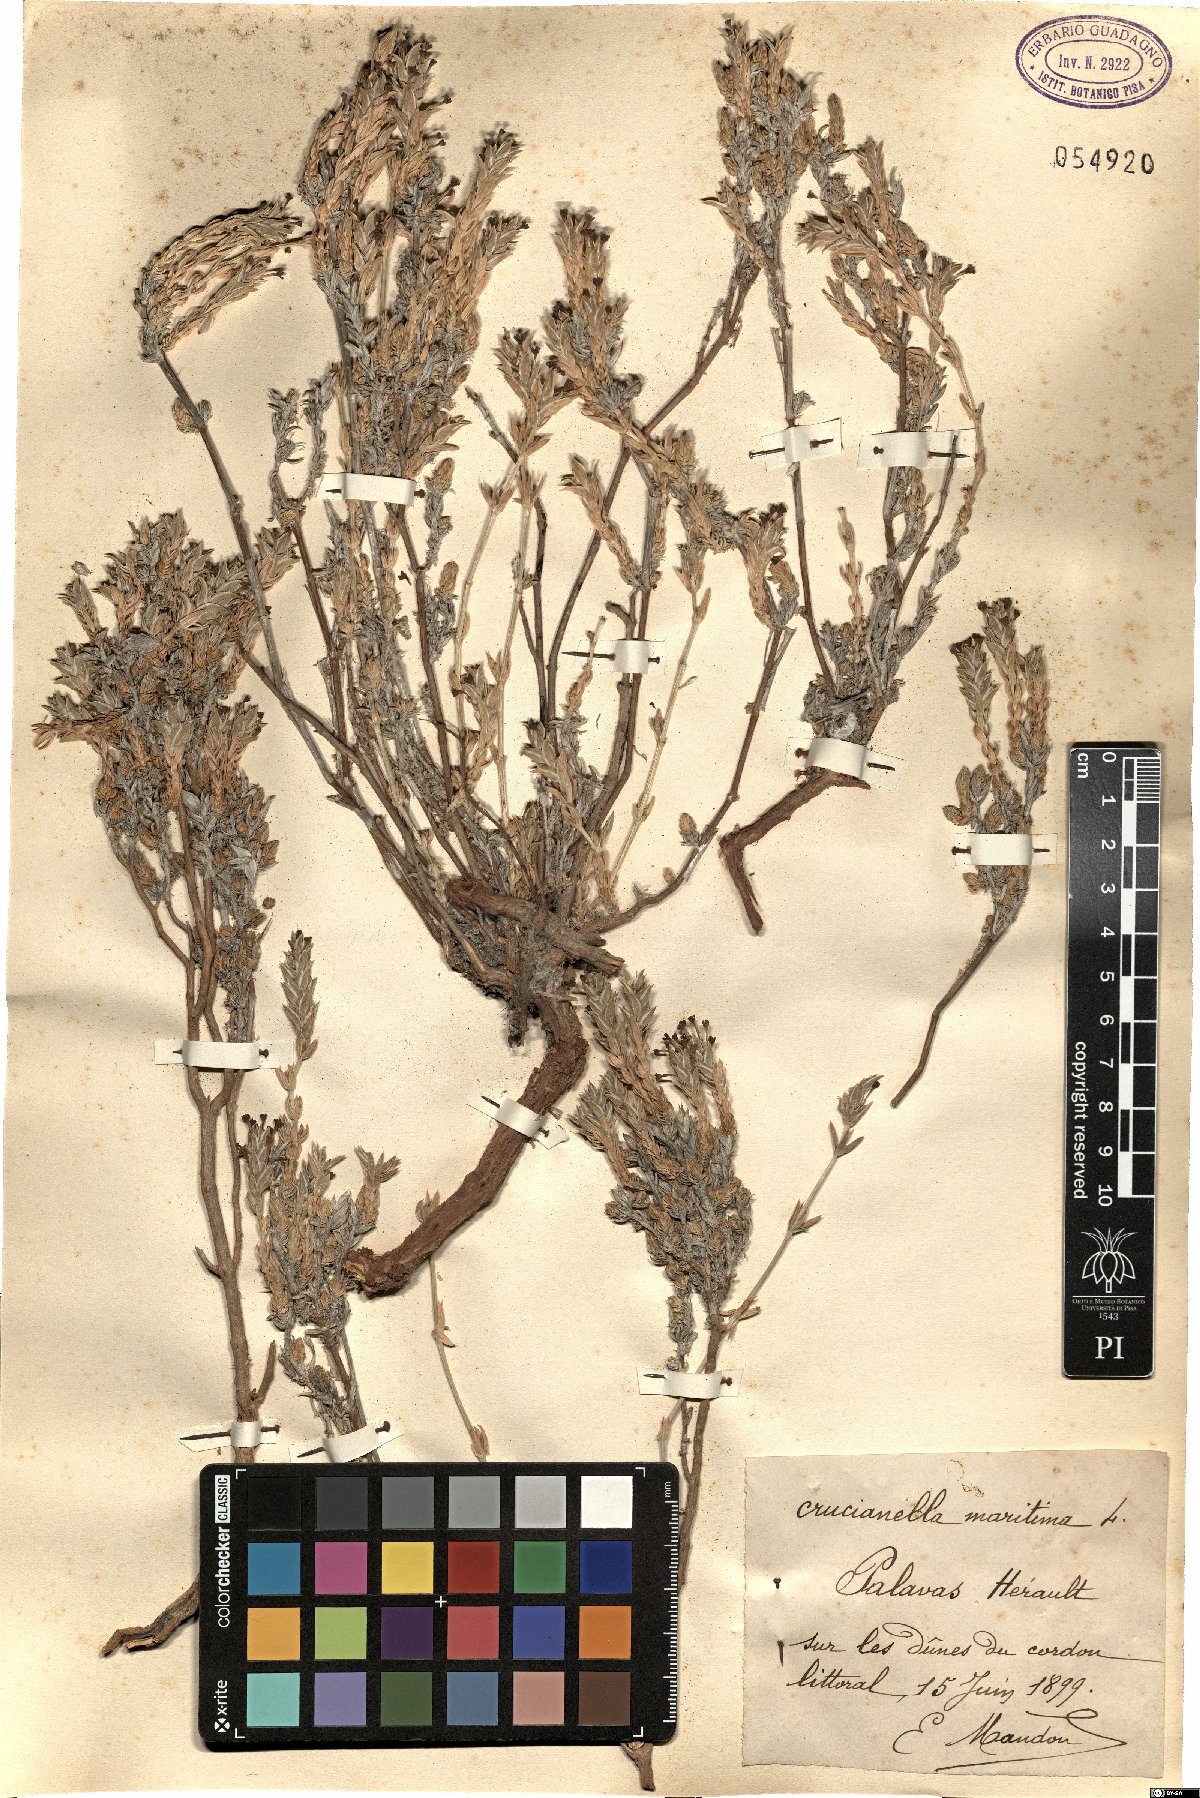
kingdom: Plantae
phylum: Tracheophyta
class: Magnoliopsida
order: Gentianales
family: Rubiaceae
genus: Crucianella
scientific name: Crucianella maritima
